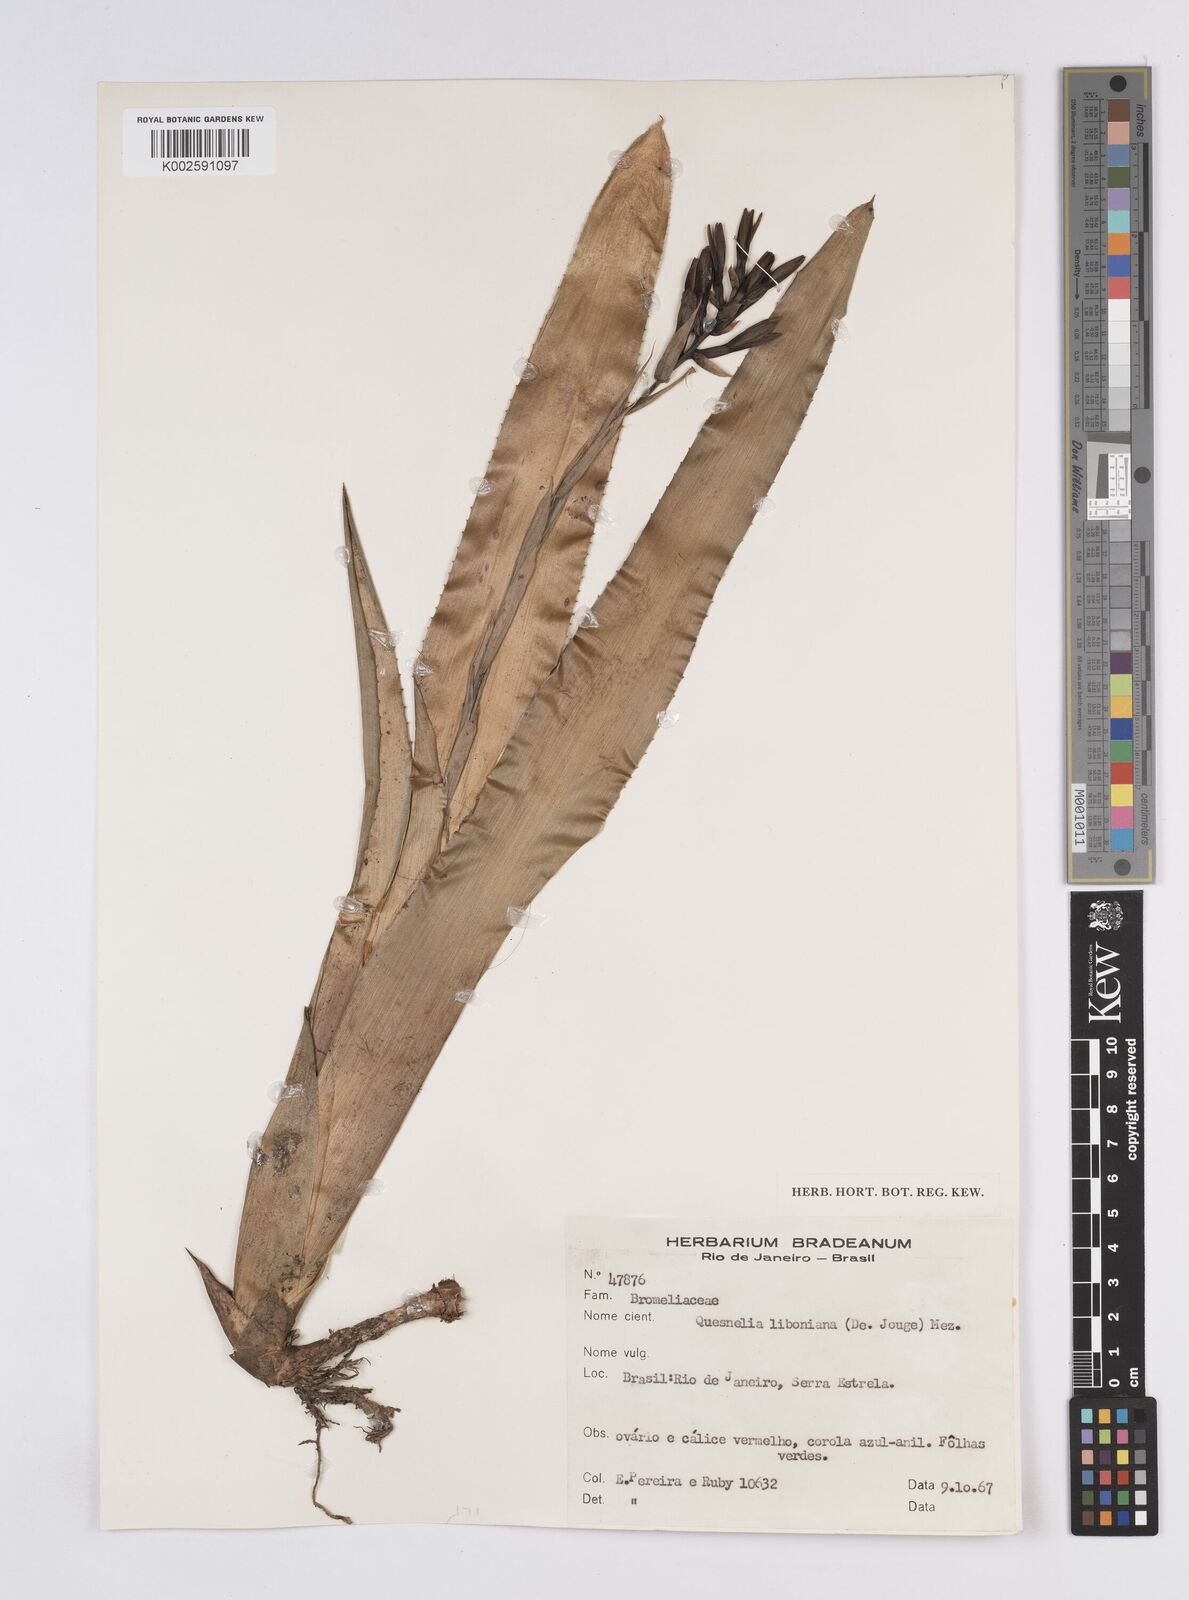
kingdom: Plantae
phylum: Tracheophyta
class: Liliopsida
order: Poales
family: Bromeliaceae
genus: Quesnelia
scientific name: Quesnelia liboniana
